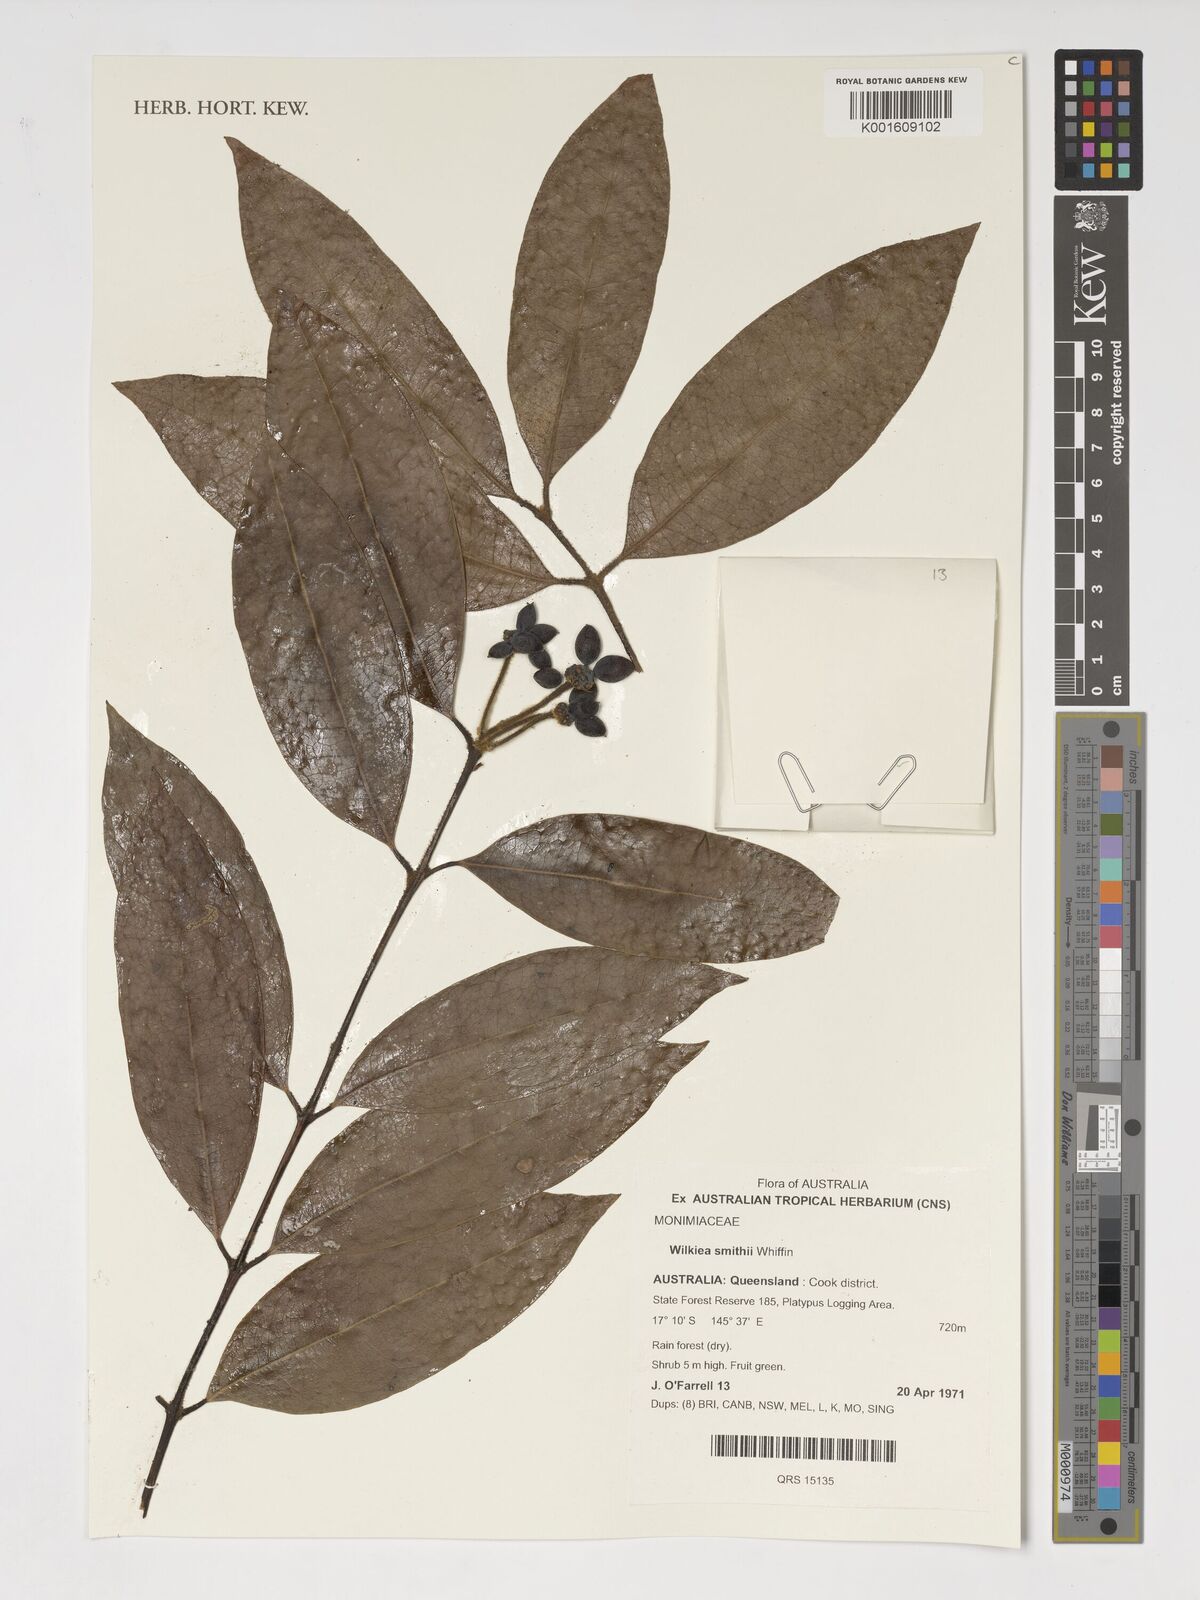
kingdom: Plantae
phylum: Tracheophyta
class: Magnoliopsida
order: Laurales
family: Monimiaceae
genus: Wilkiea
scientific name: Wilkiea smithii
